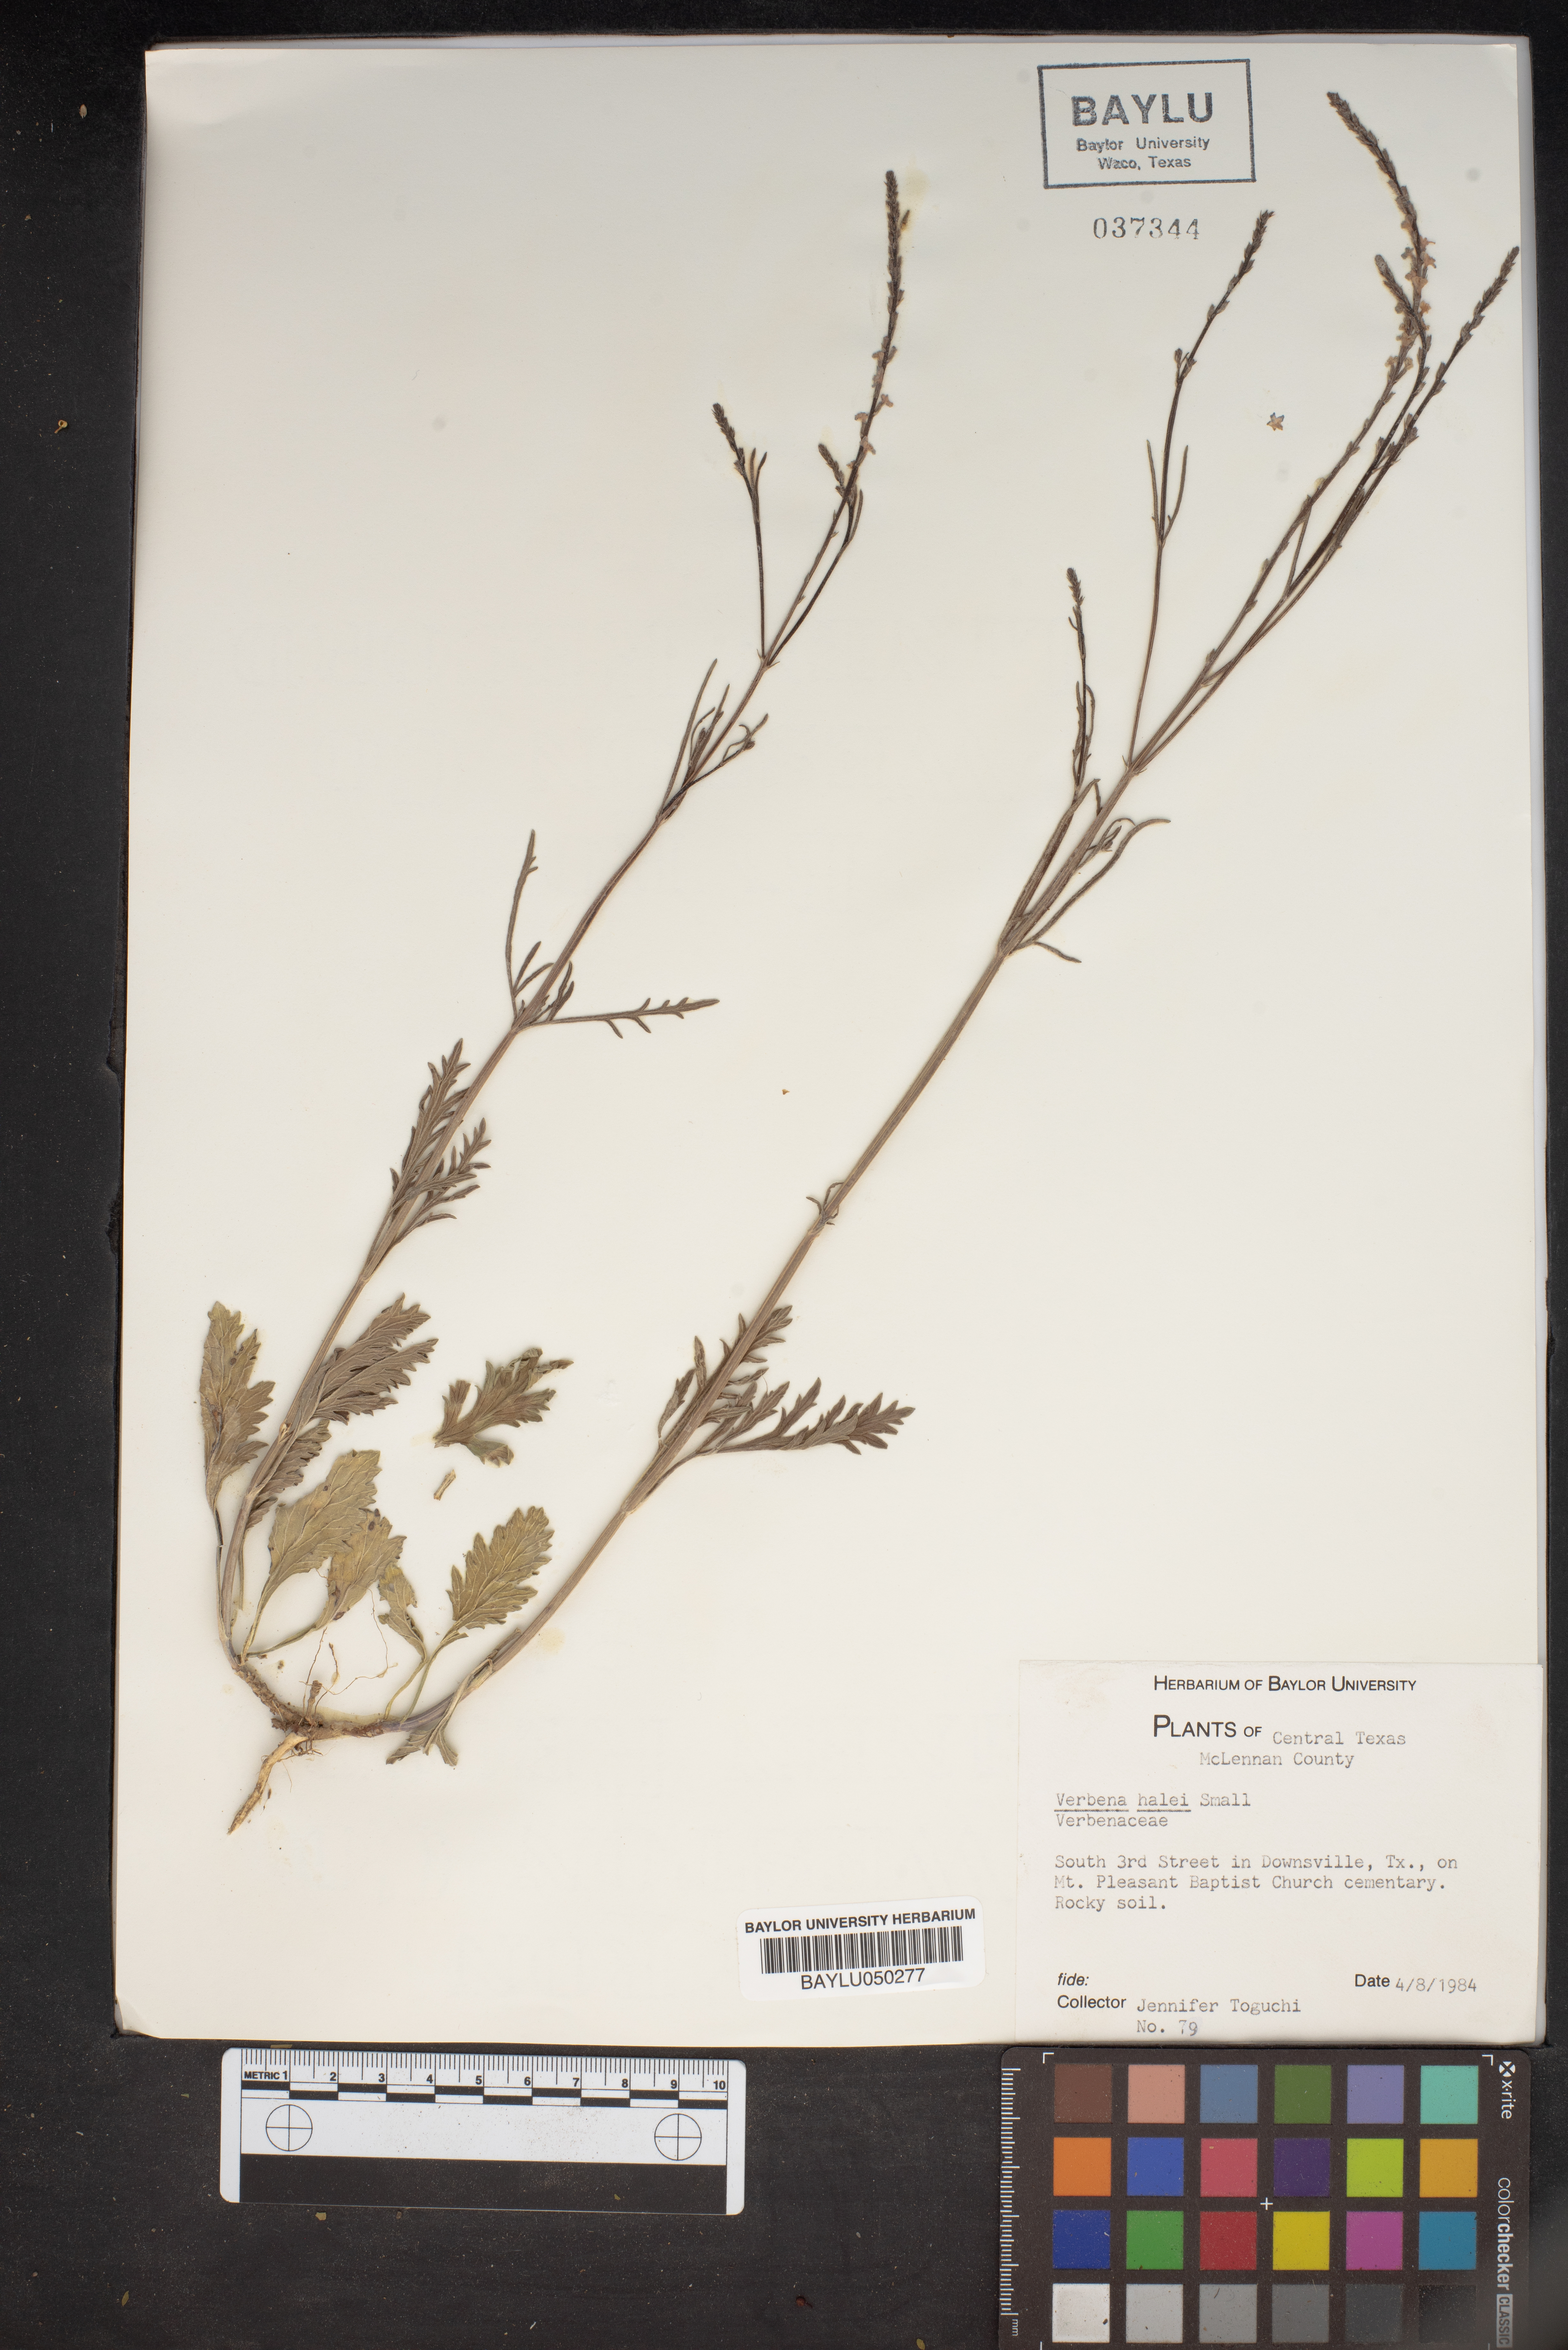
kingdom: Plantae
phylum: Tracheophyta
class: Magnoliopsida
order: Lamiales
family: Verbenaceae
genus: Verbena
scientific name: Verbena halei
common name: Texas vervain
